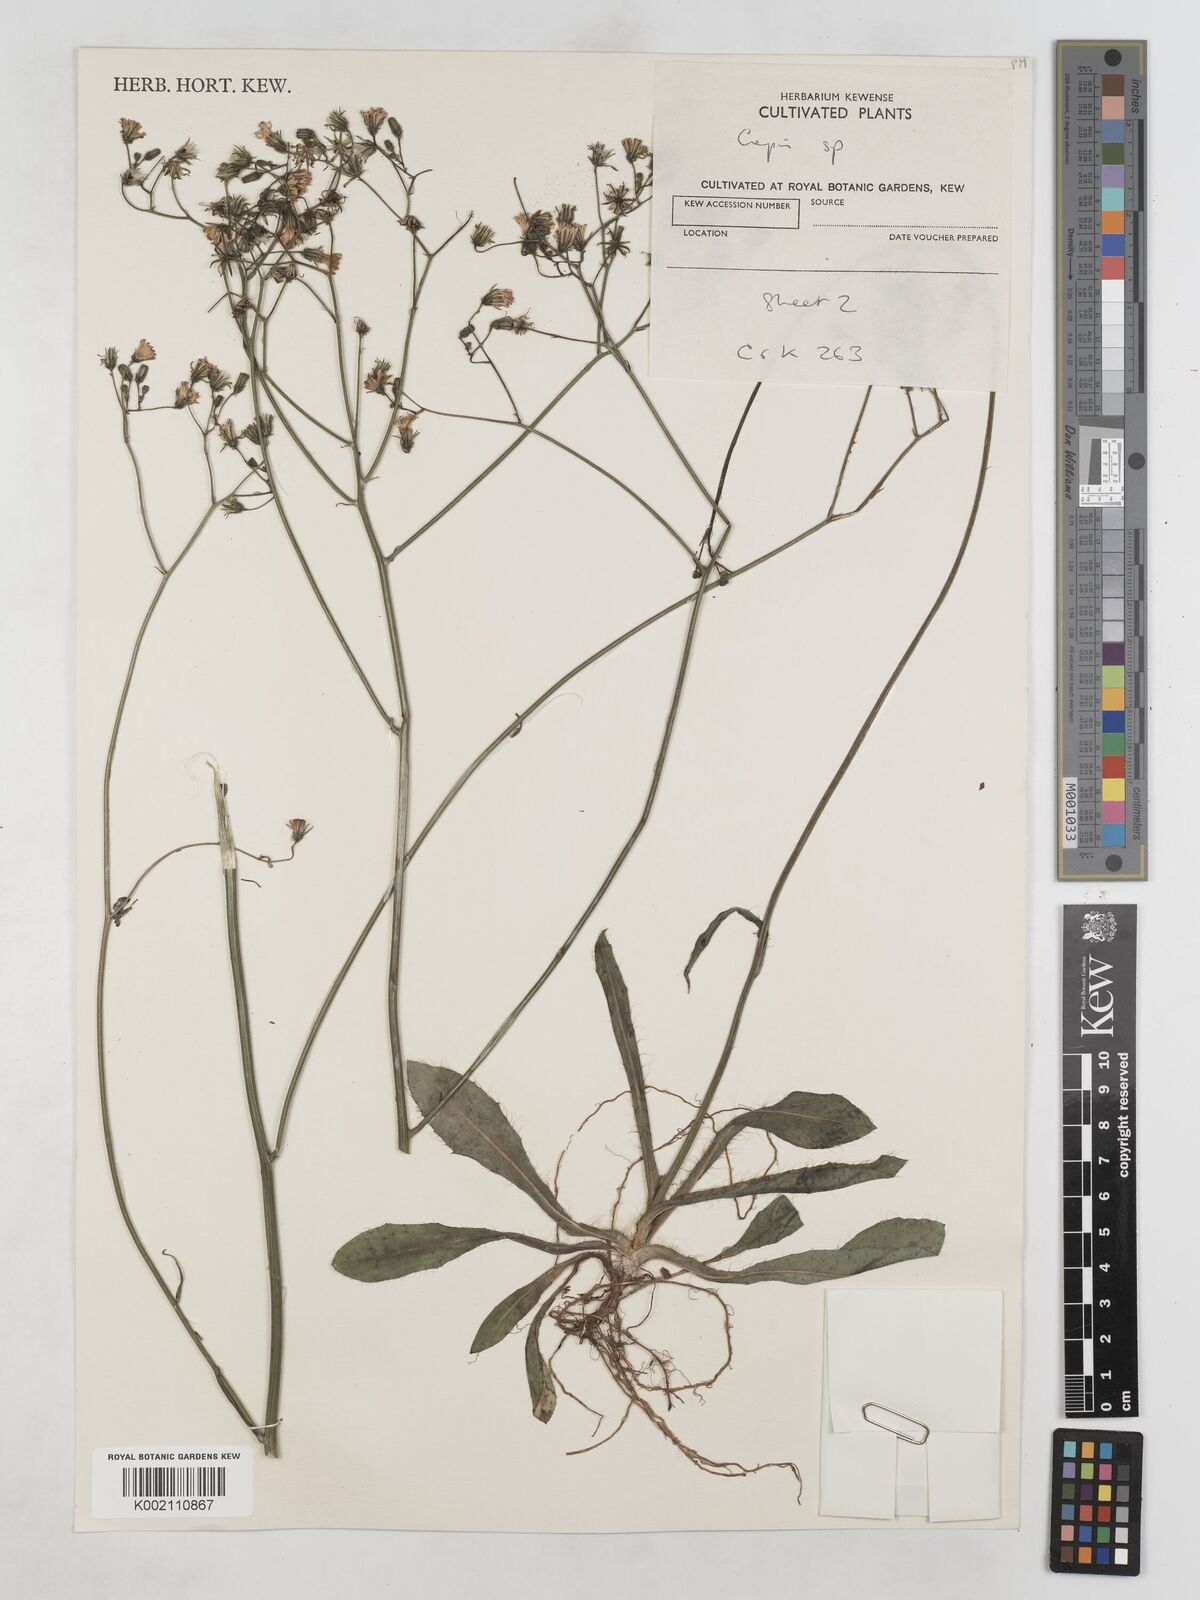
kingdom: Plantae
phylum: Tracheophyta
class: Magnoliopsida
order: Asterales
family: Asteraceae
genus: Crepis
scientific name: Crepis setosa
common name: Bristly hawk's-beard
